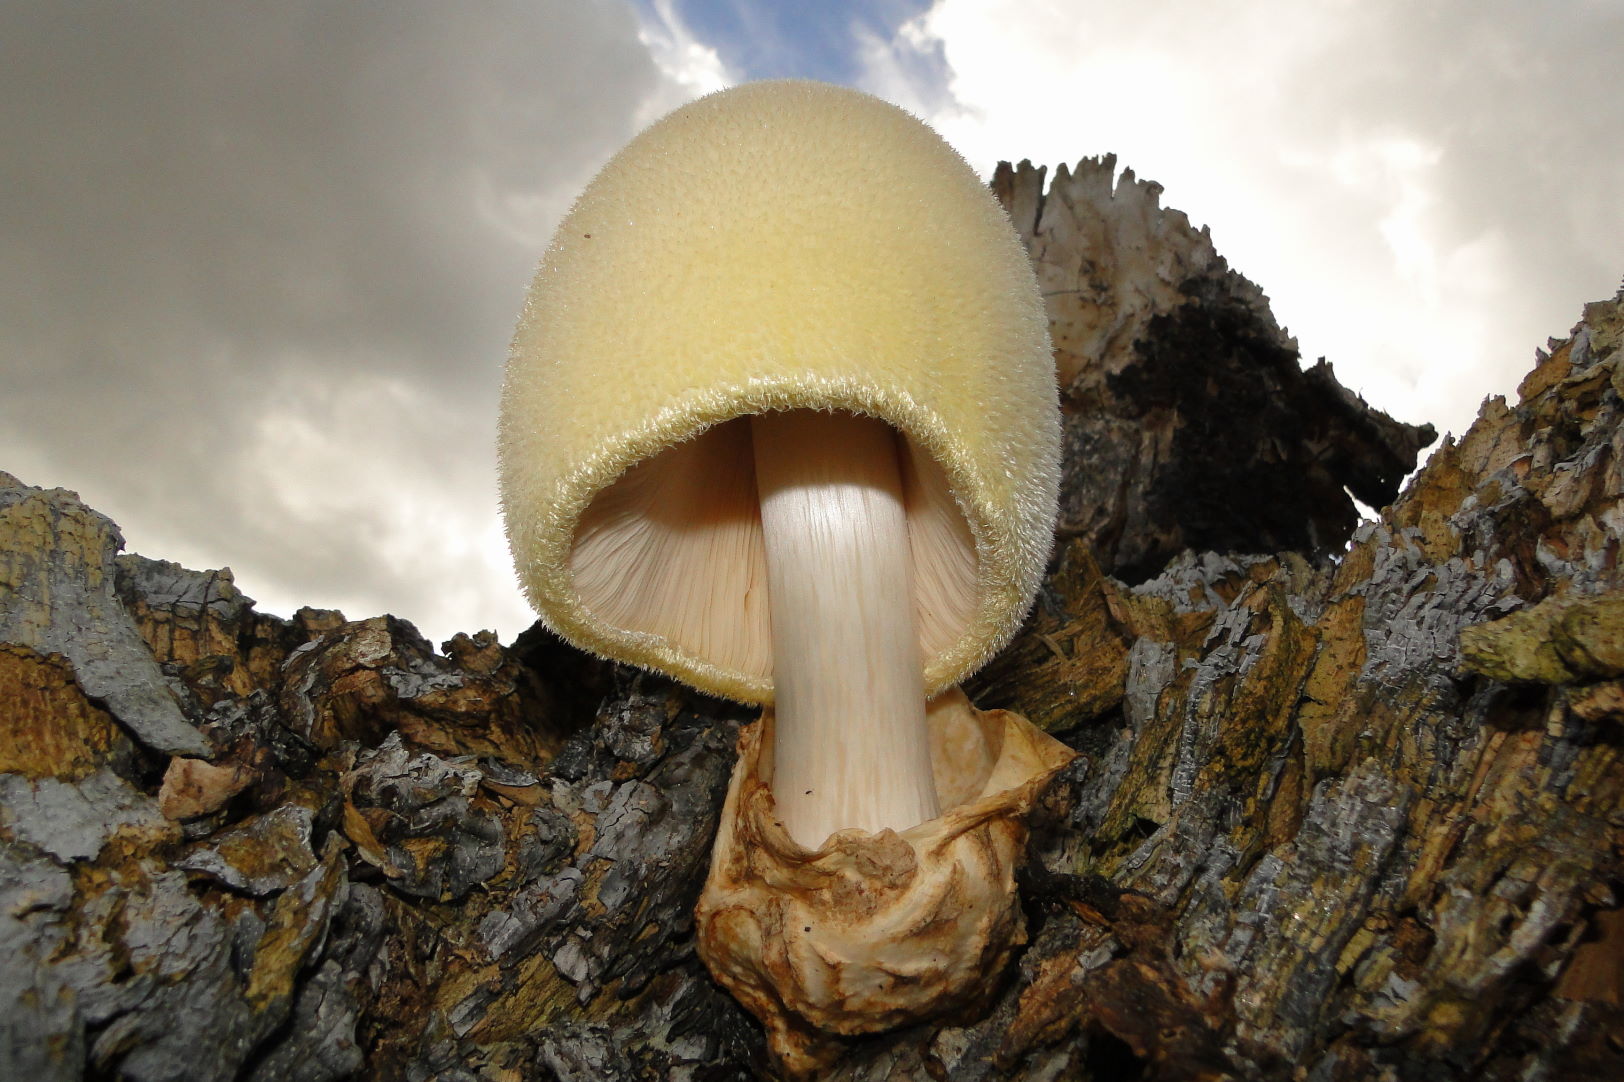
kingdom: Fungi
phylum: Basidiomycota
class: Agaricomycetes
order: Agaricales
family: Pluteaceae
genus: Volvariella
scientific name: Volvariella bombycina
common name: silkehåret posesvamp
